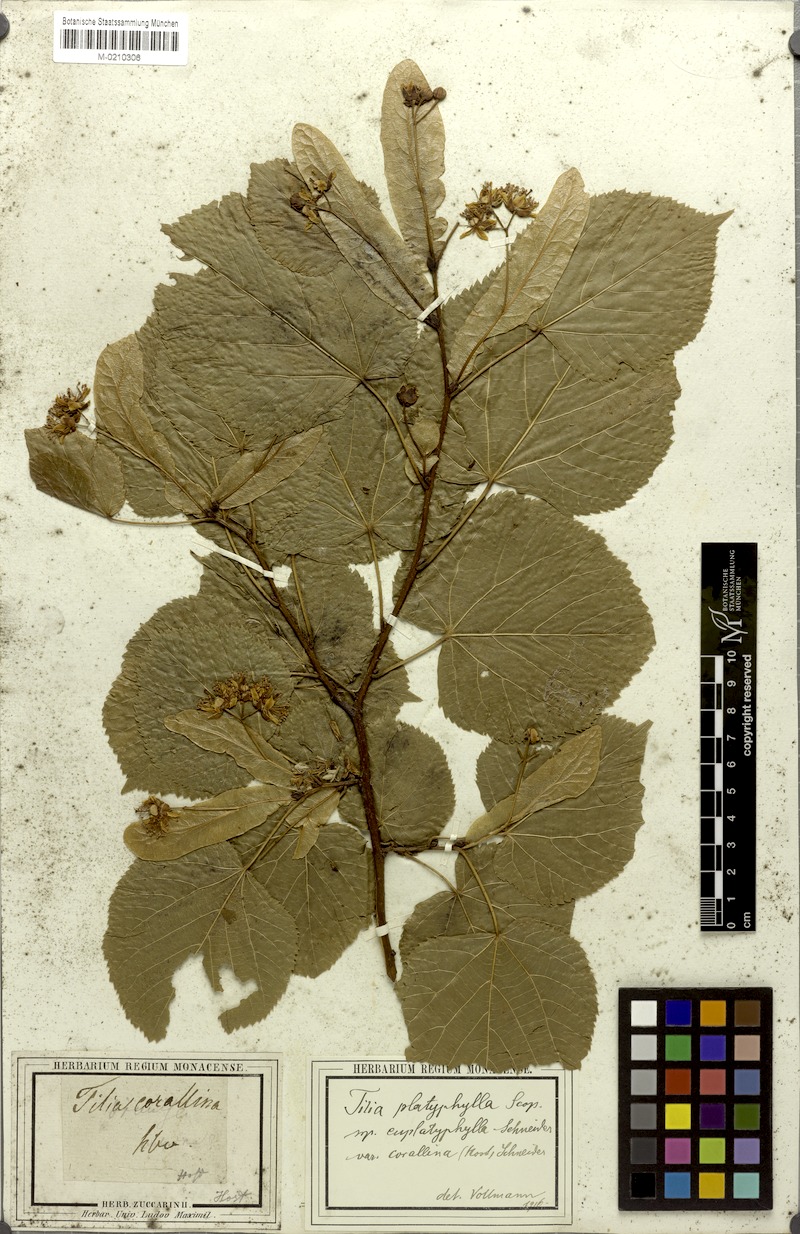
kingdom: Plantae
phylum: Tracheophyta
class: Magnoliopsida
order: Malvales
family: Malvaceae
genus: Tilia
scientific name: Tilia platyphyllos
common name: Large-leaved lime
